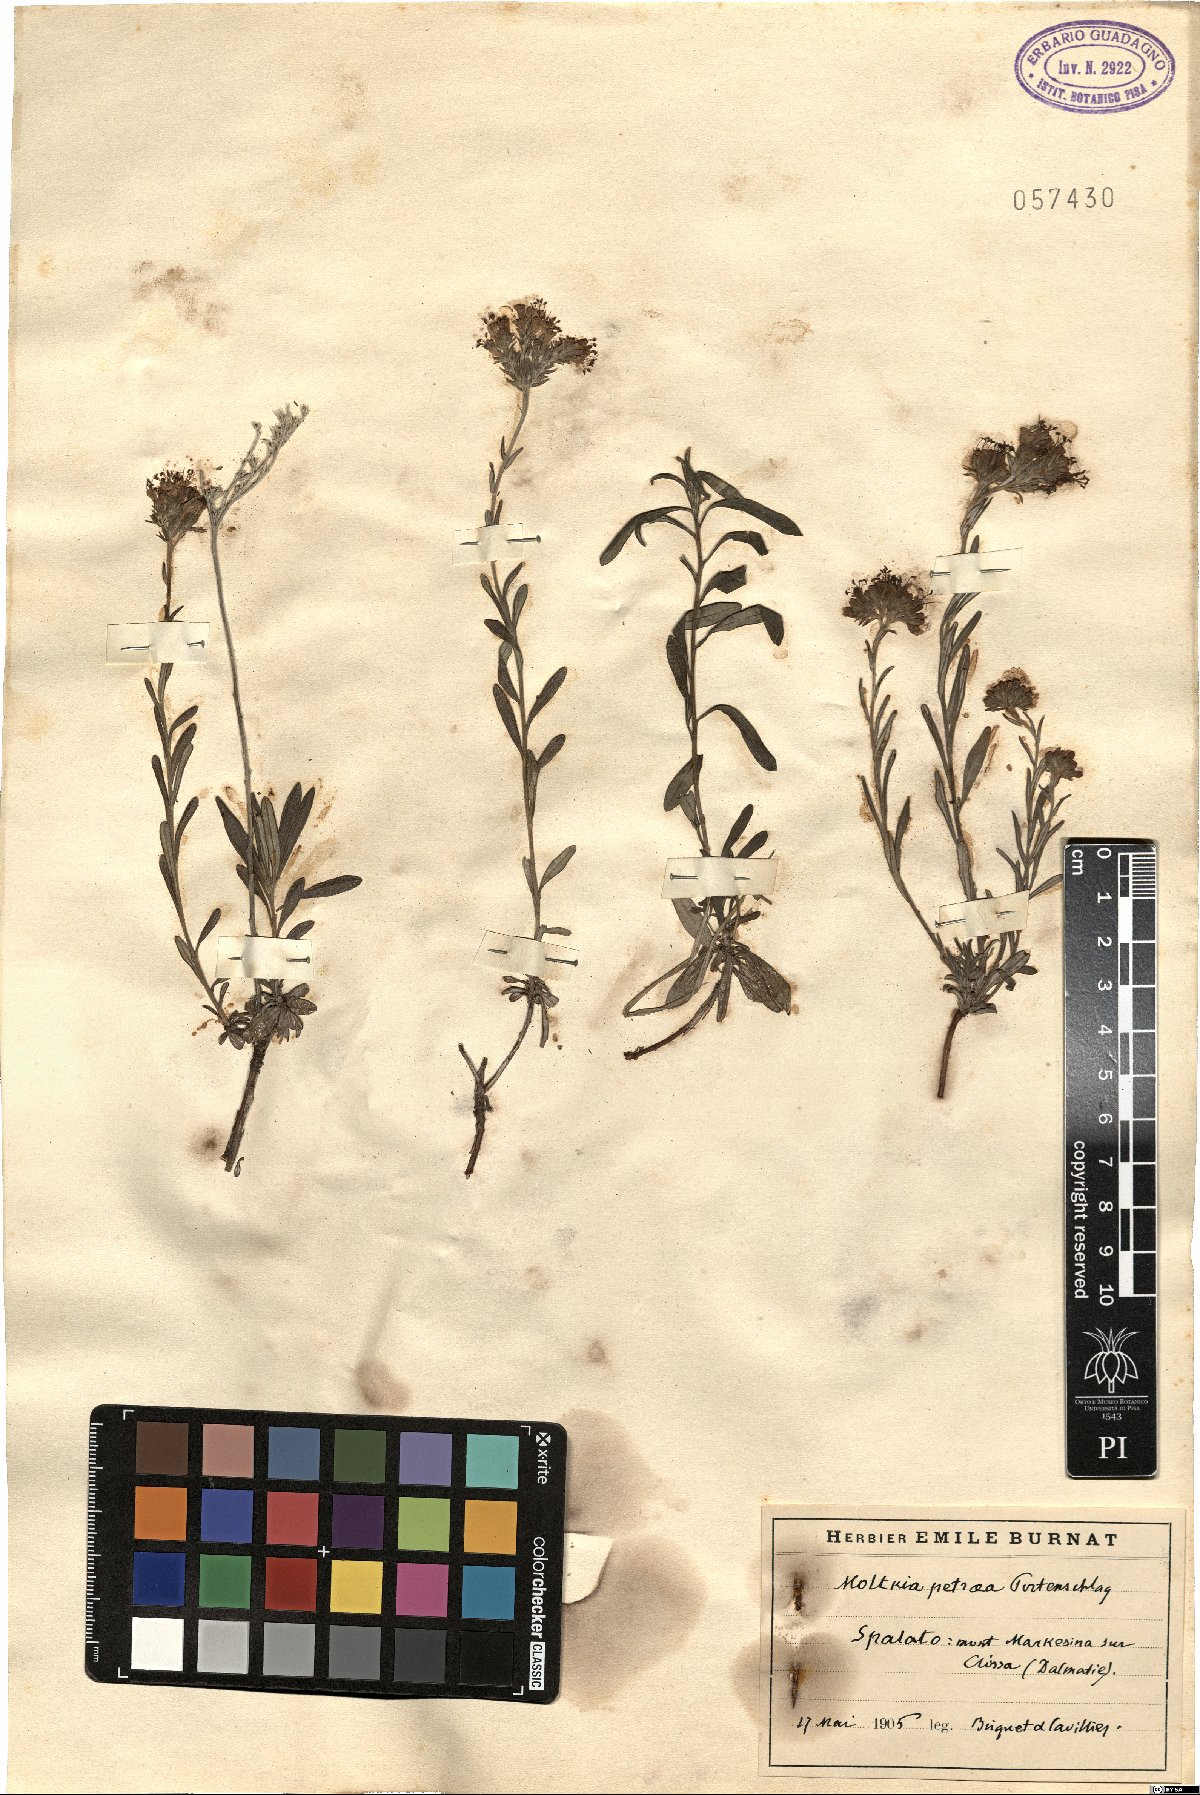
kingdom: Plantae
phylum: Tracheophyta
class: Magnoliopsida
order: Boraginales
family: Boraginaceae
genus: Moltkia
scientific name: Moltkia petraea
